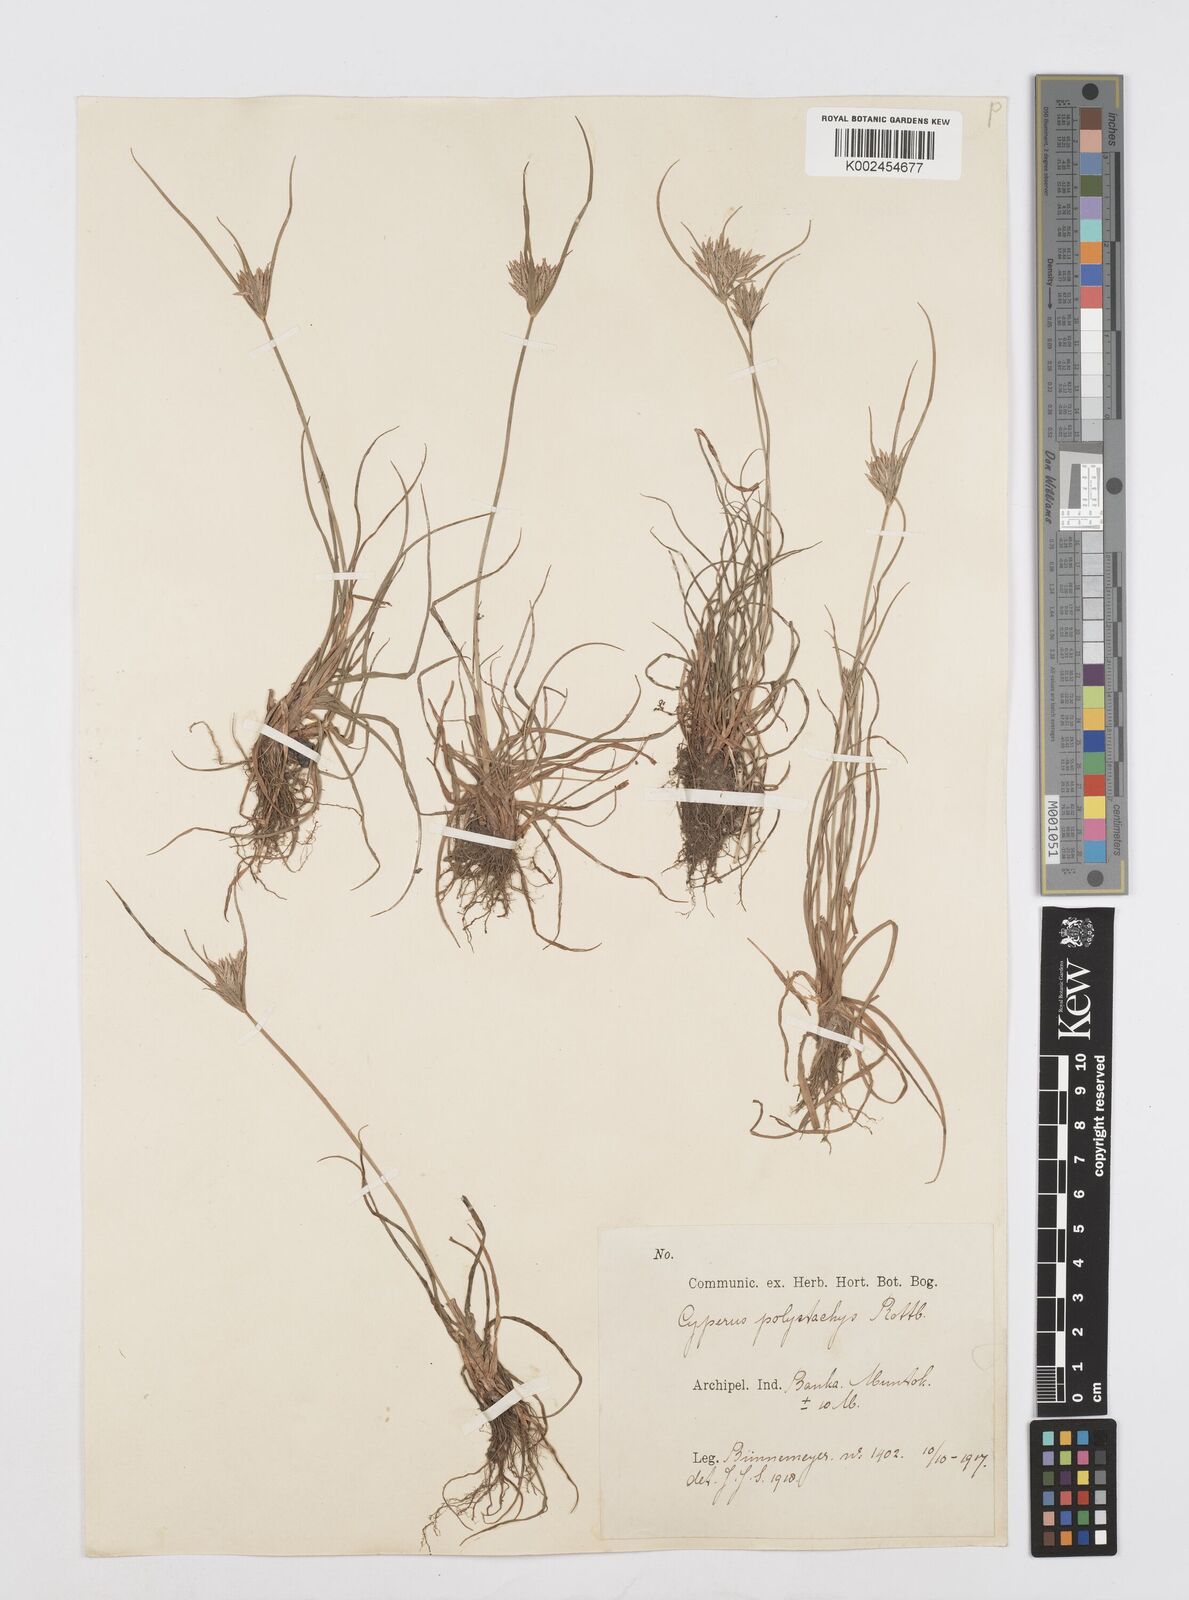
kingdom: Plantae
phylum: Tracheophyta
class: Liliopsida
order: Poales
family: Cyperaceae
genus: Cyperus
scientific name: Cyperus polystachyos
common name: Bunchy flat sedge
